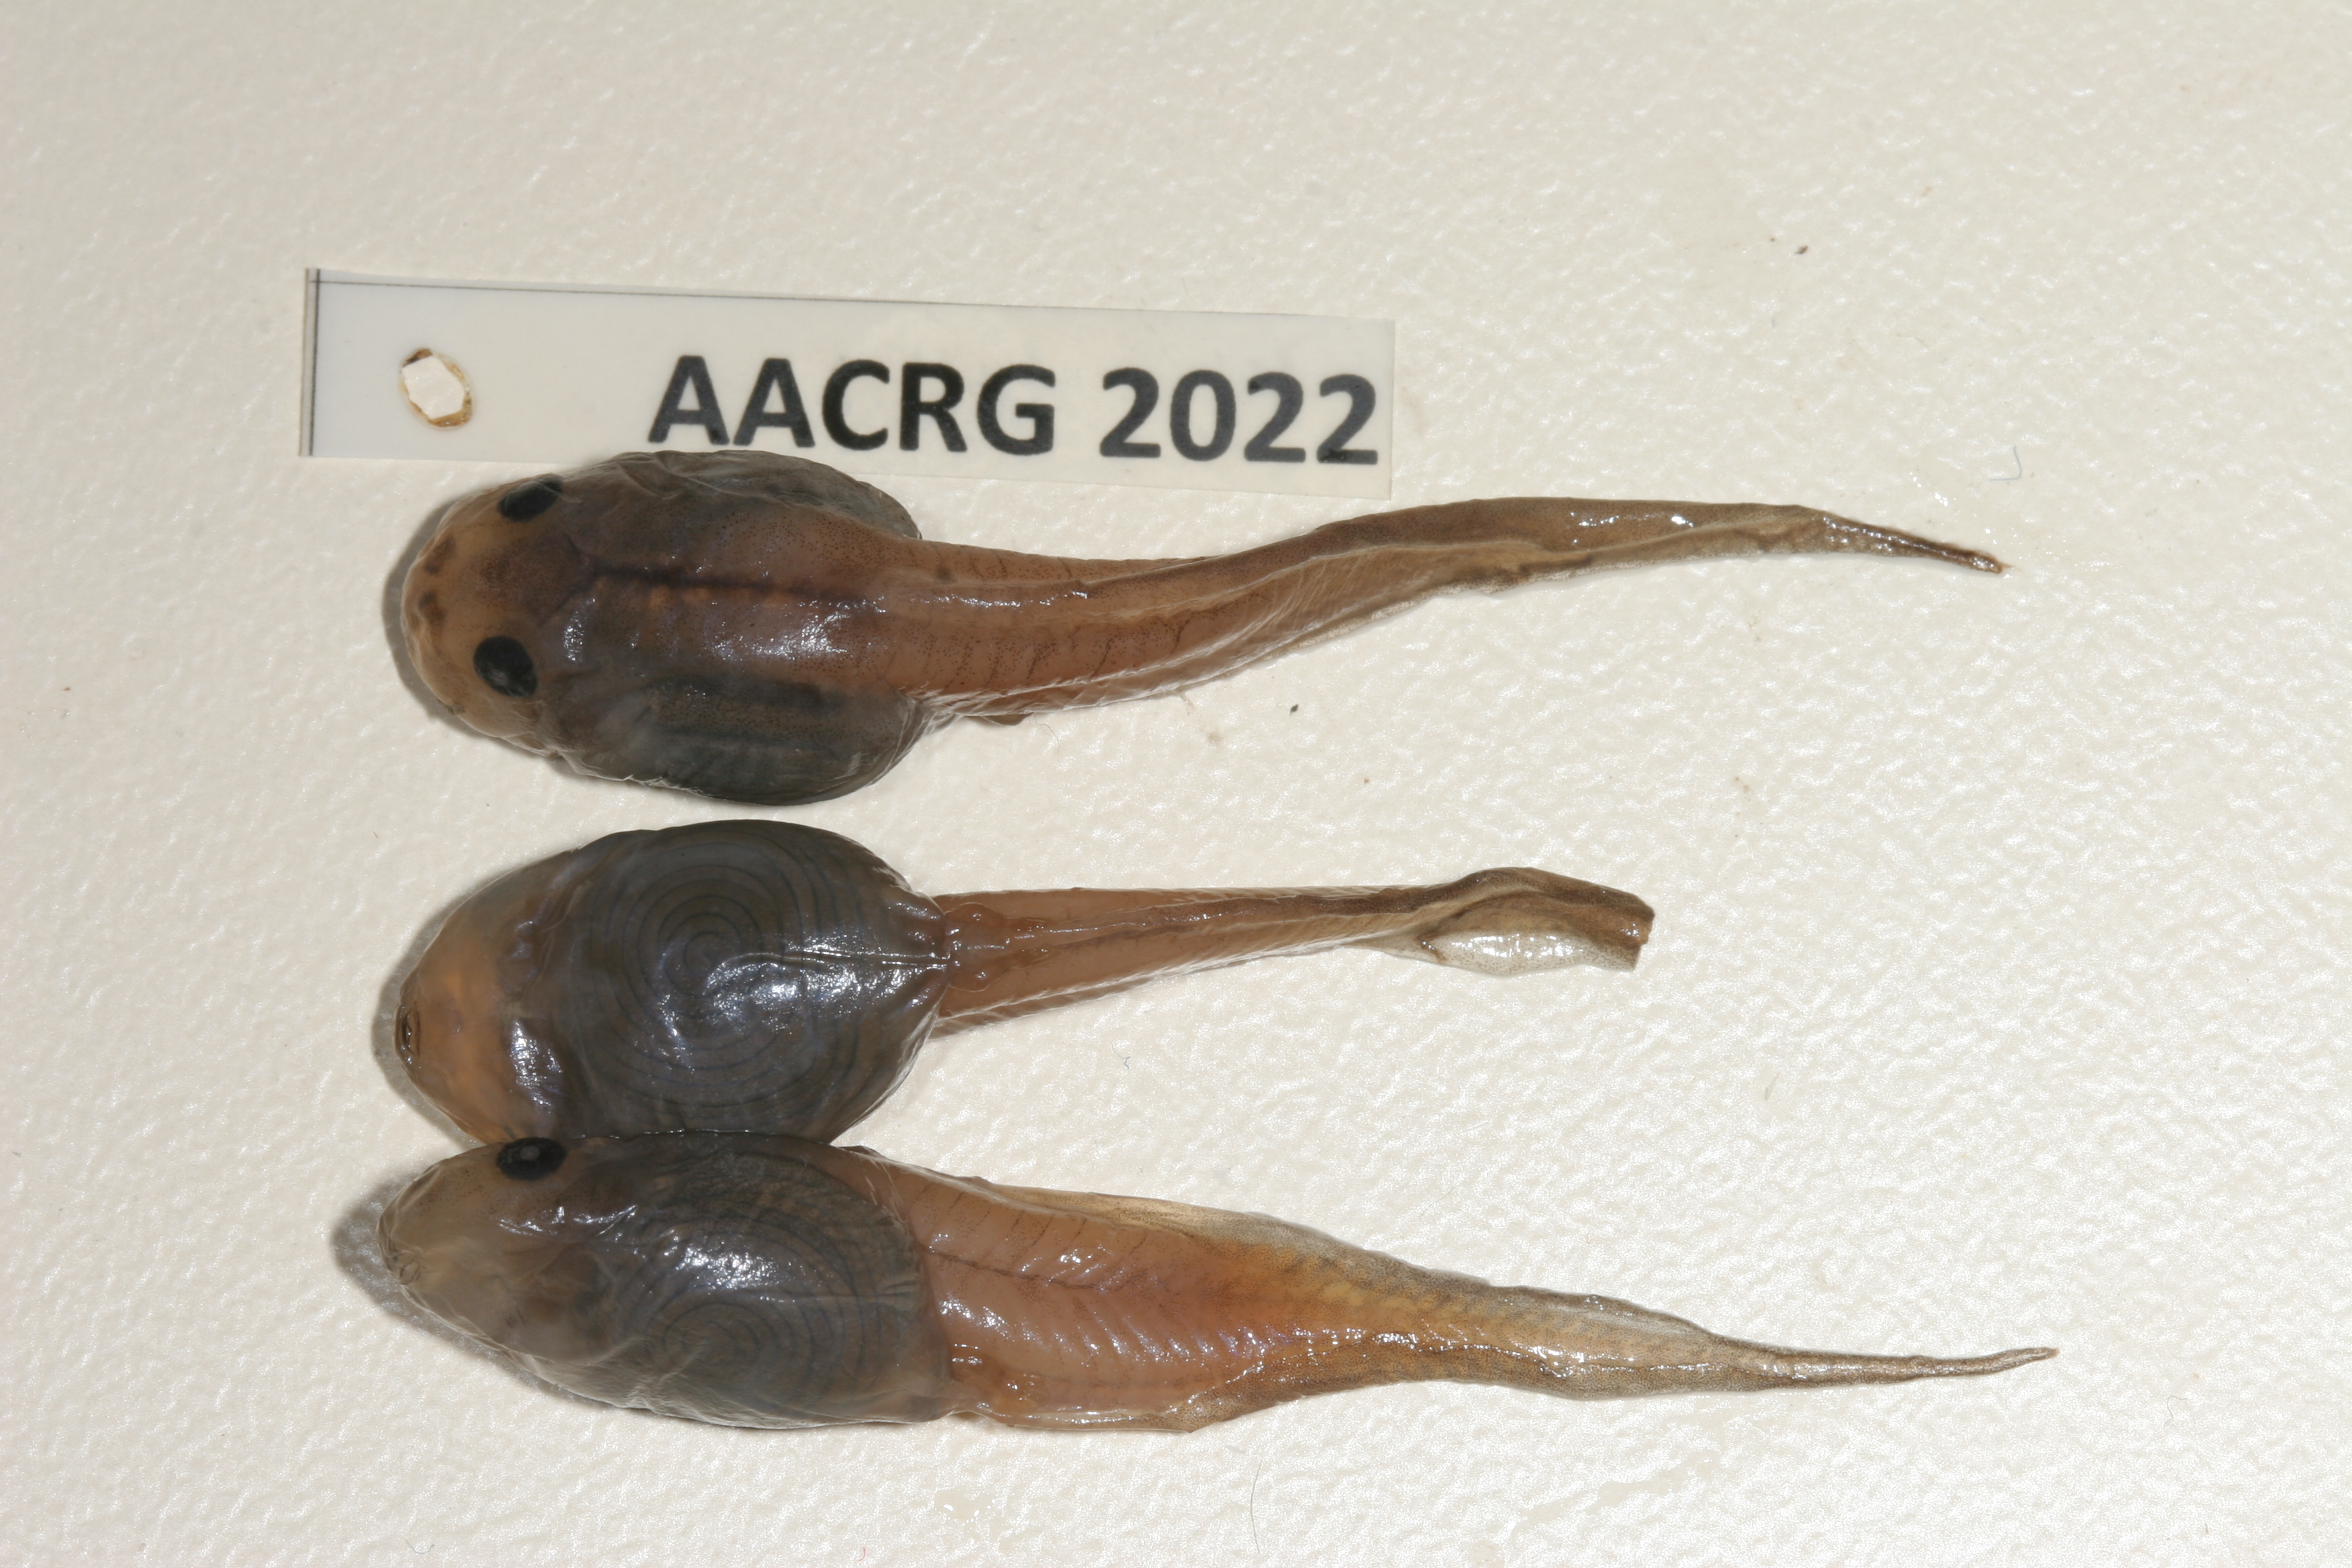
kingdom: Animalia
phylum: Chordata
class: Amphibia
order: Anura
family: Rhacophoridae
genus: Chiromantis
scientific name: Chiromantis xerampelina
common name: African gray treefrog
